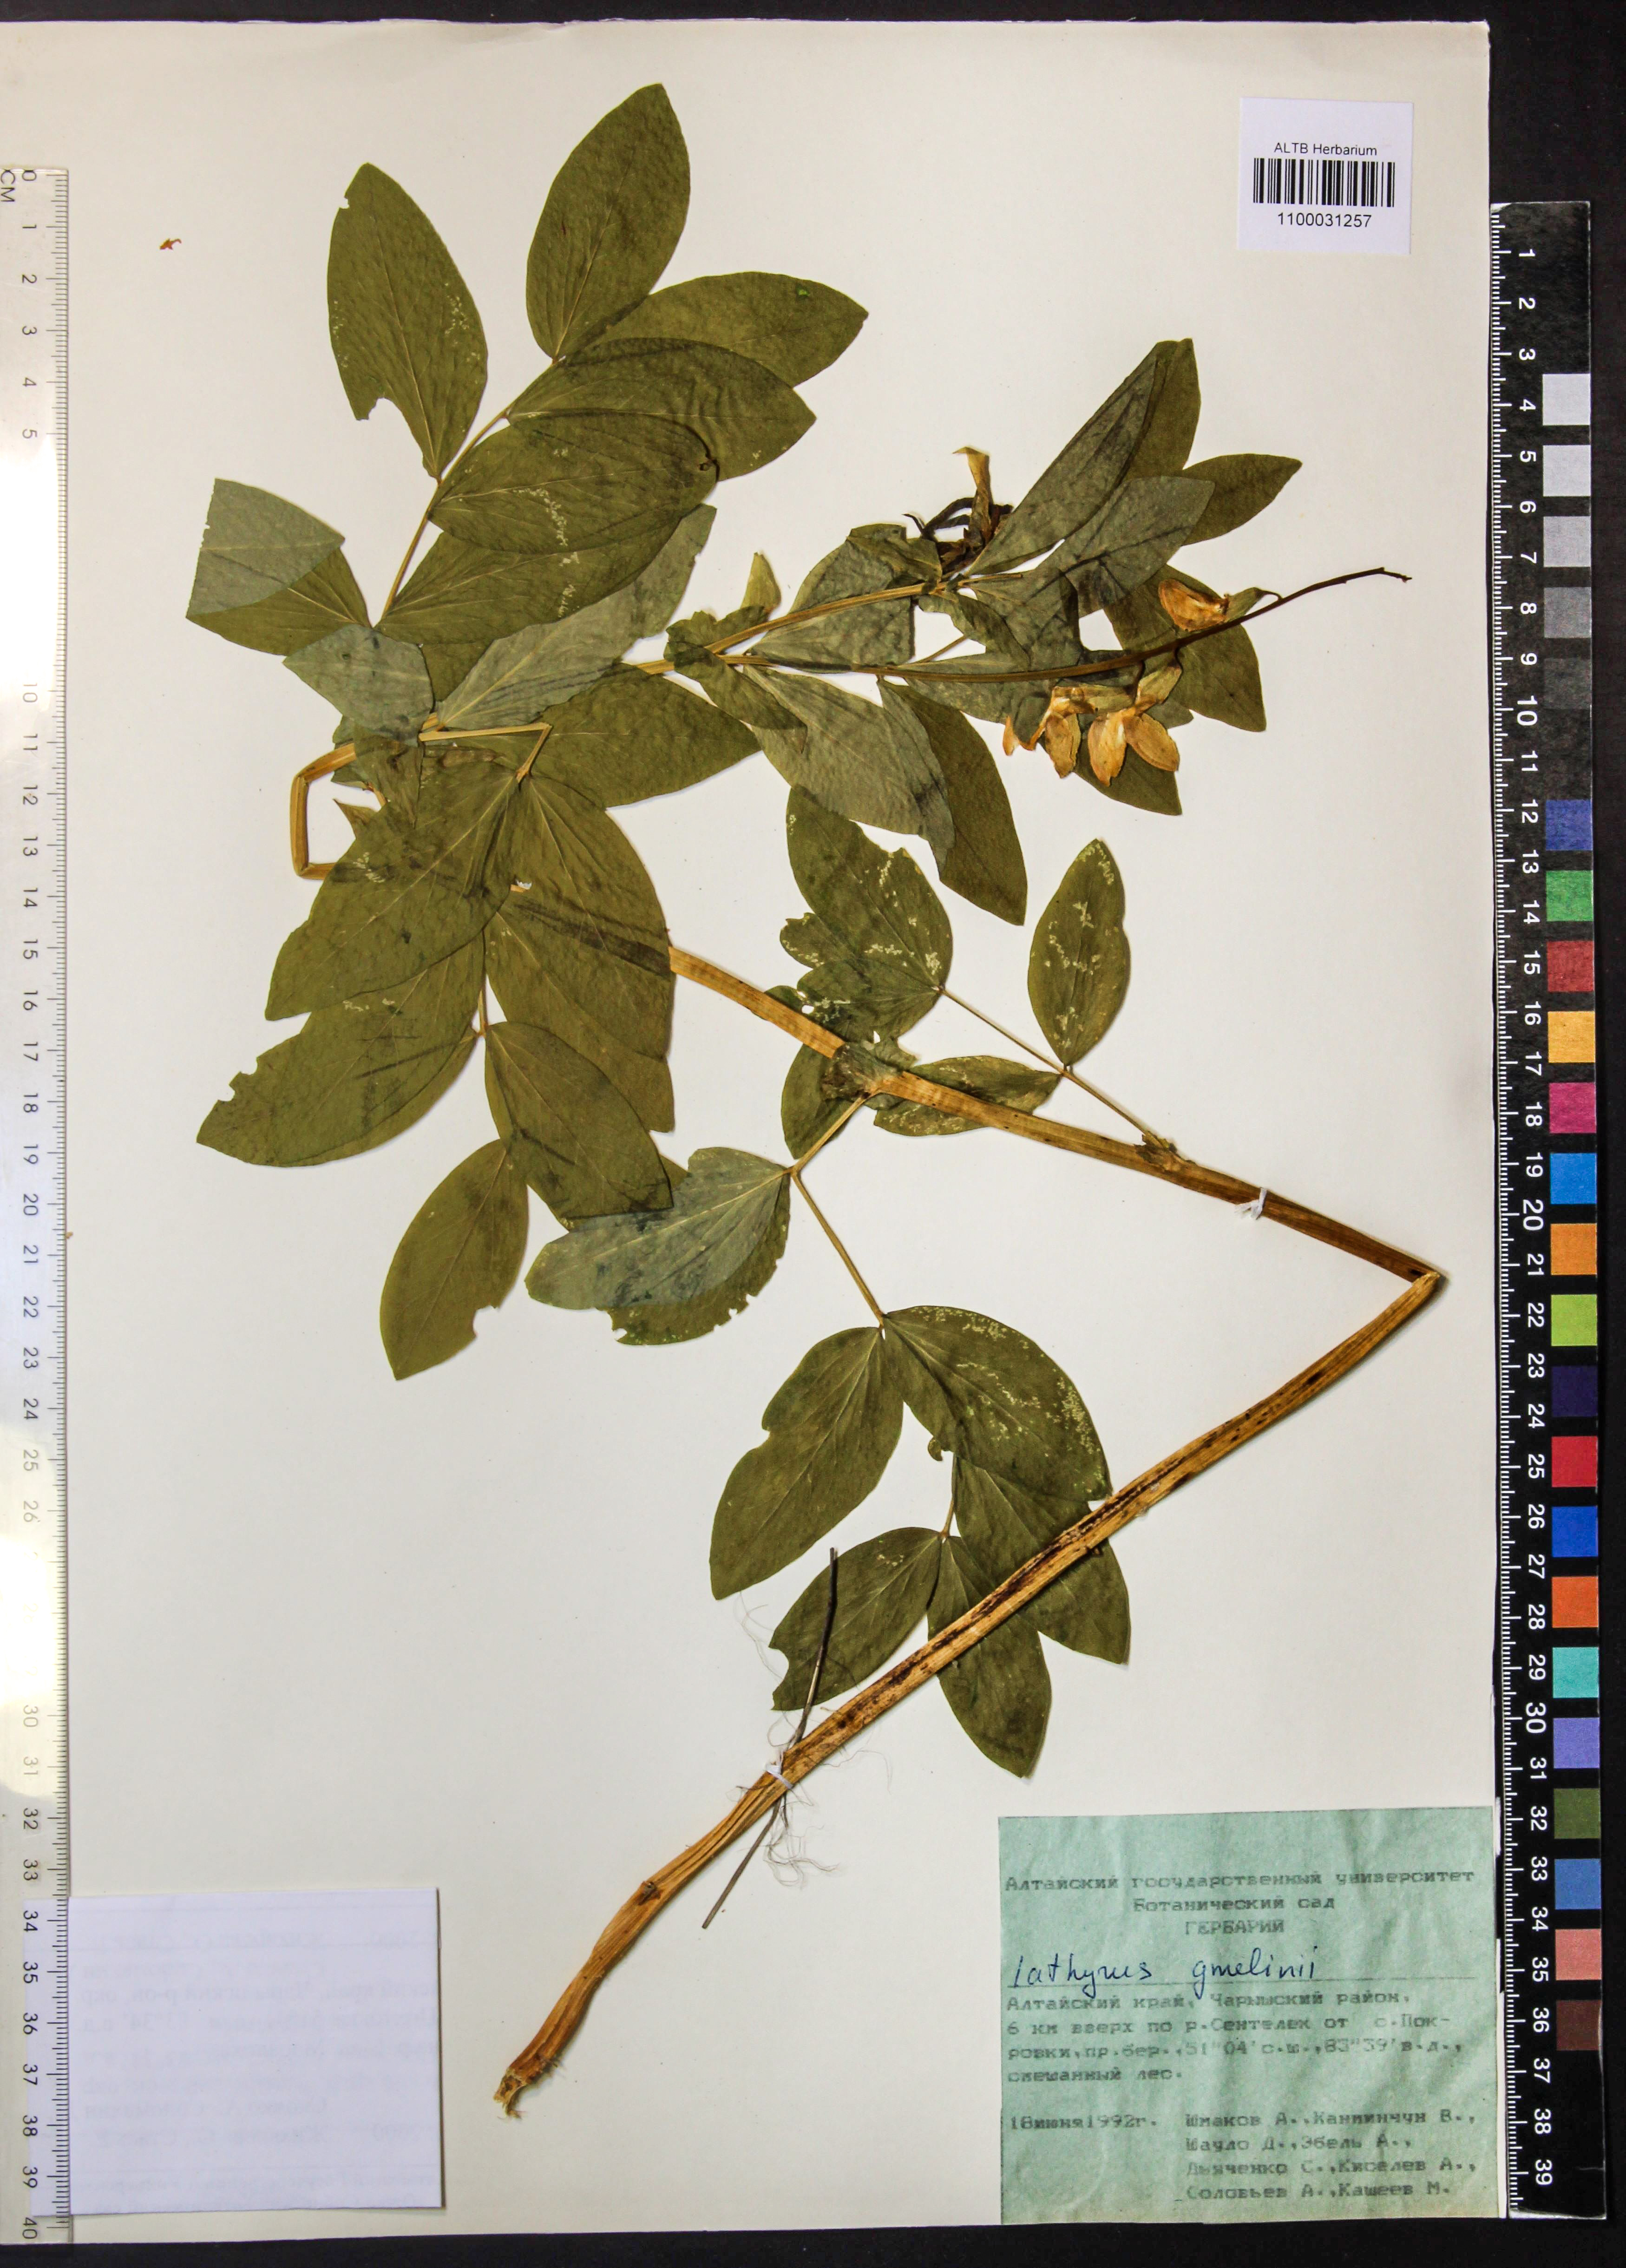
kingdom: Plantae
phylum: Tracheophyta
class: Magnoliopsida
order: Fabales
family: Fabaceae
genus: Lathyrus
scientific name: Lathyrus gmelinii
